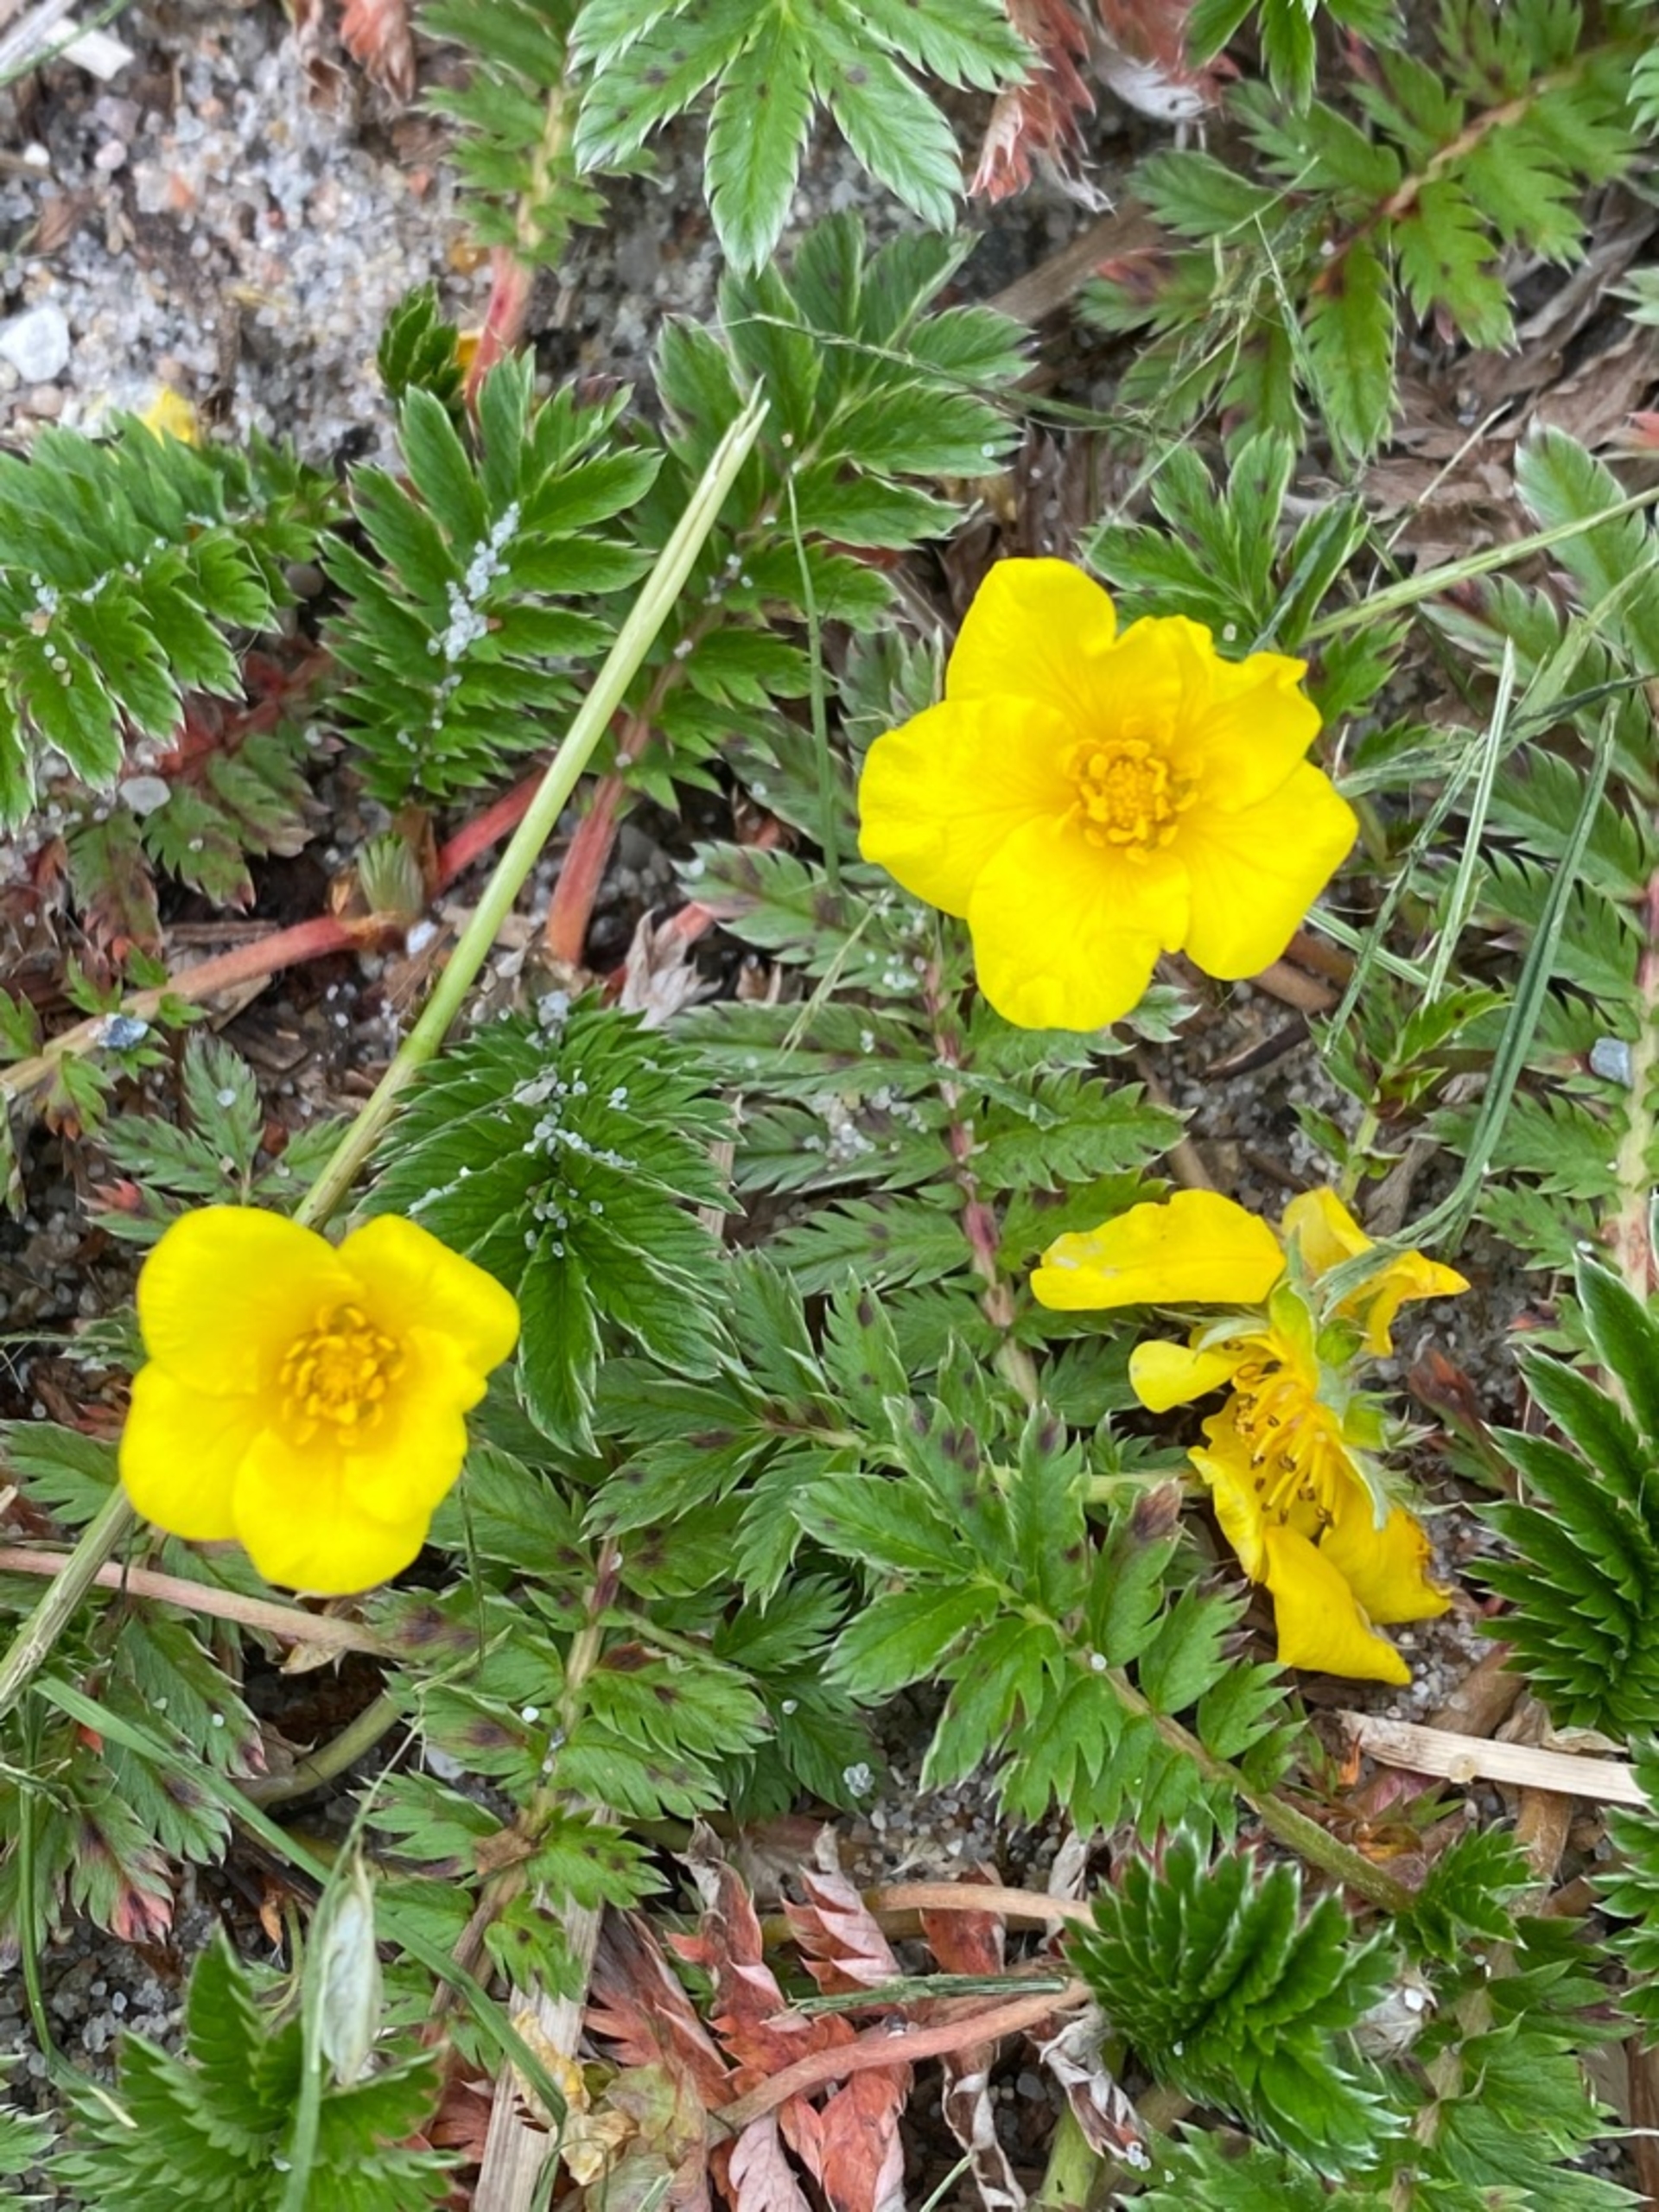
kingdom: Plantae
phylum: Tracheophyta
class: Magnoliopsida
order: Rosales
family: Rosaceae
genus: Argentina
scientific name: Argentina anserina
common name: Gåsepotentil
